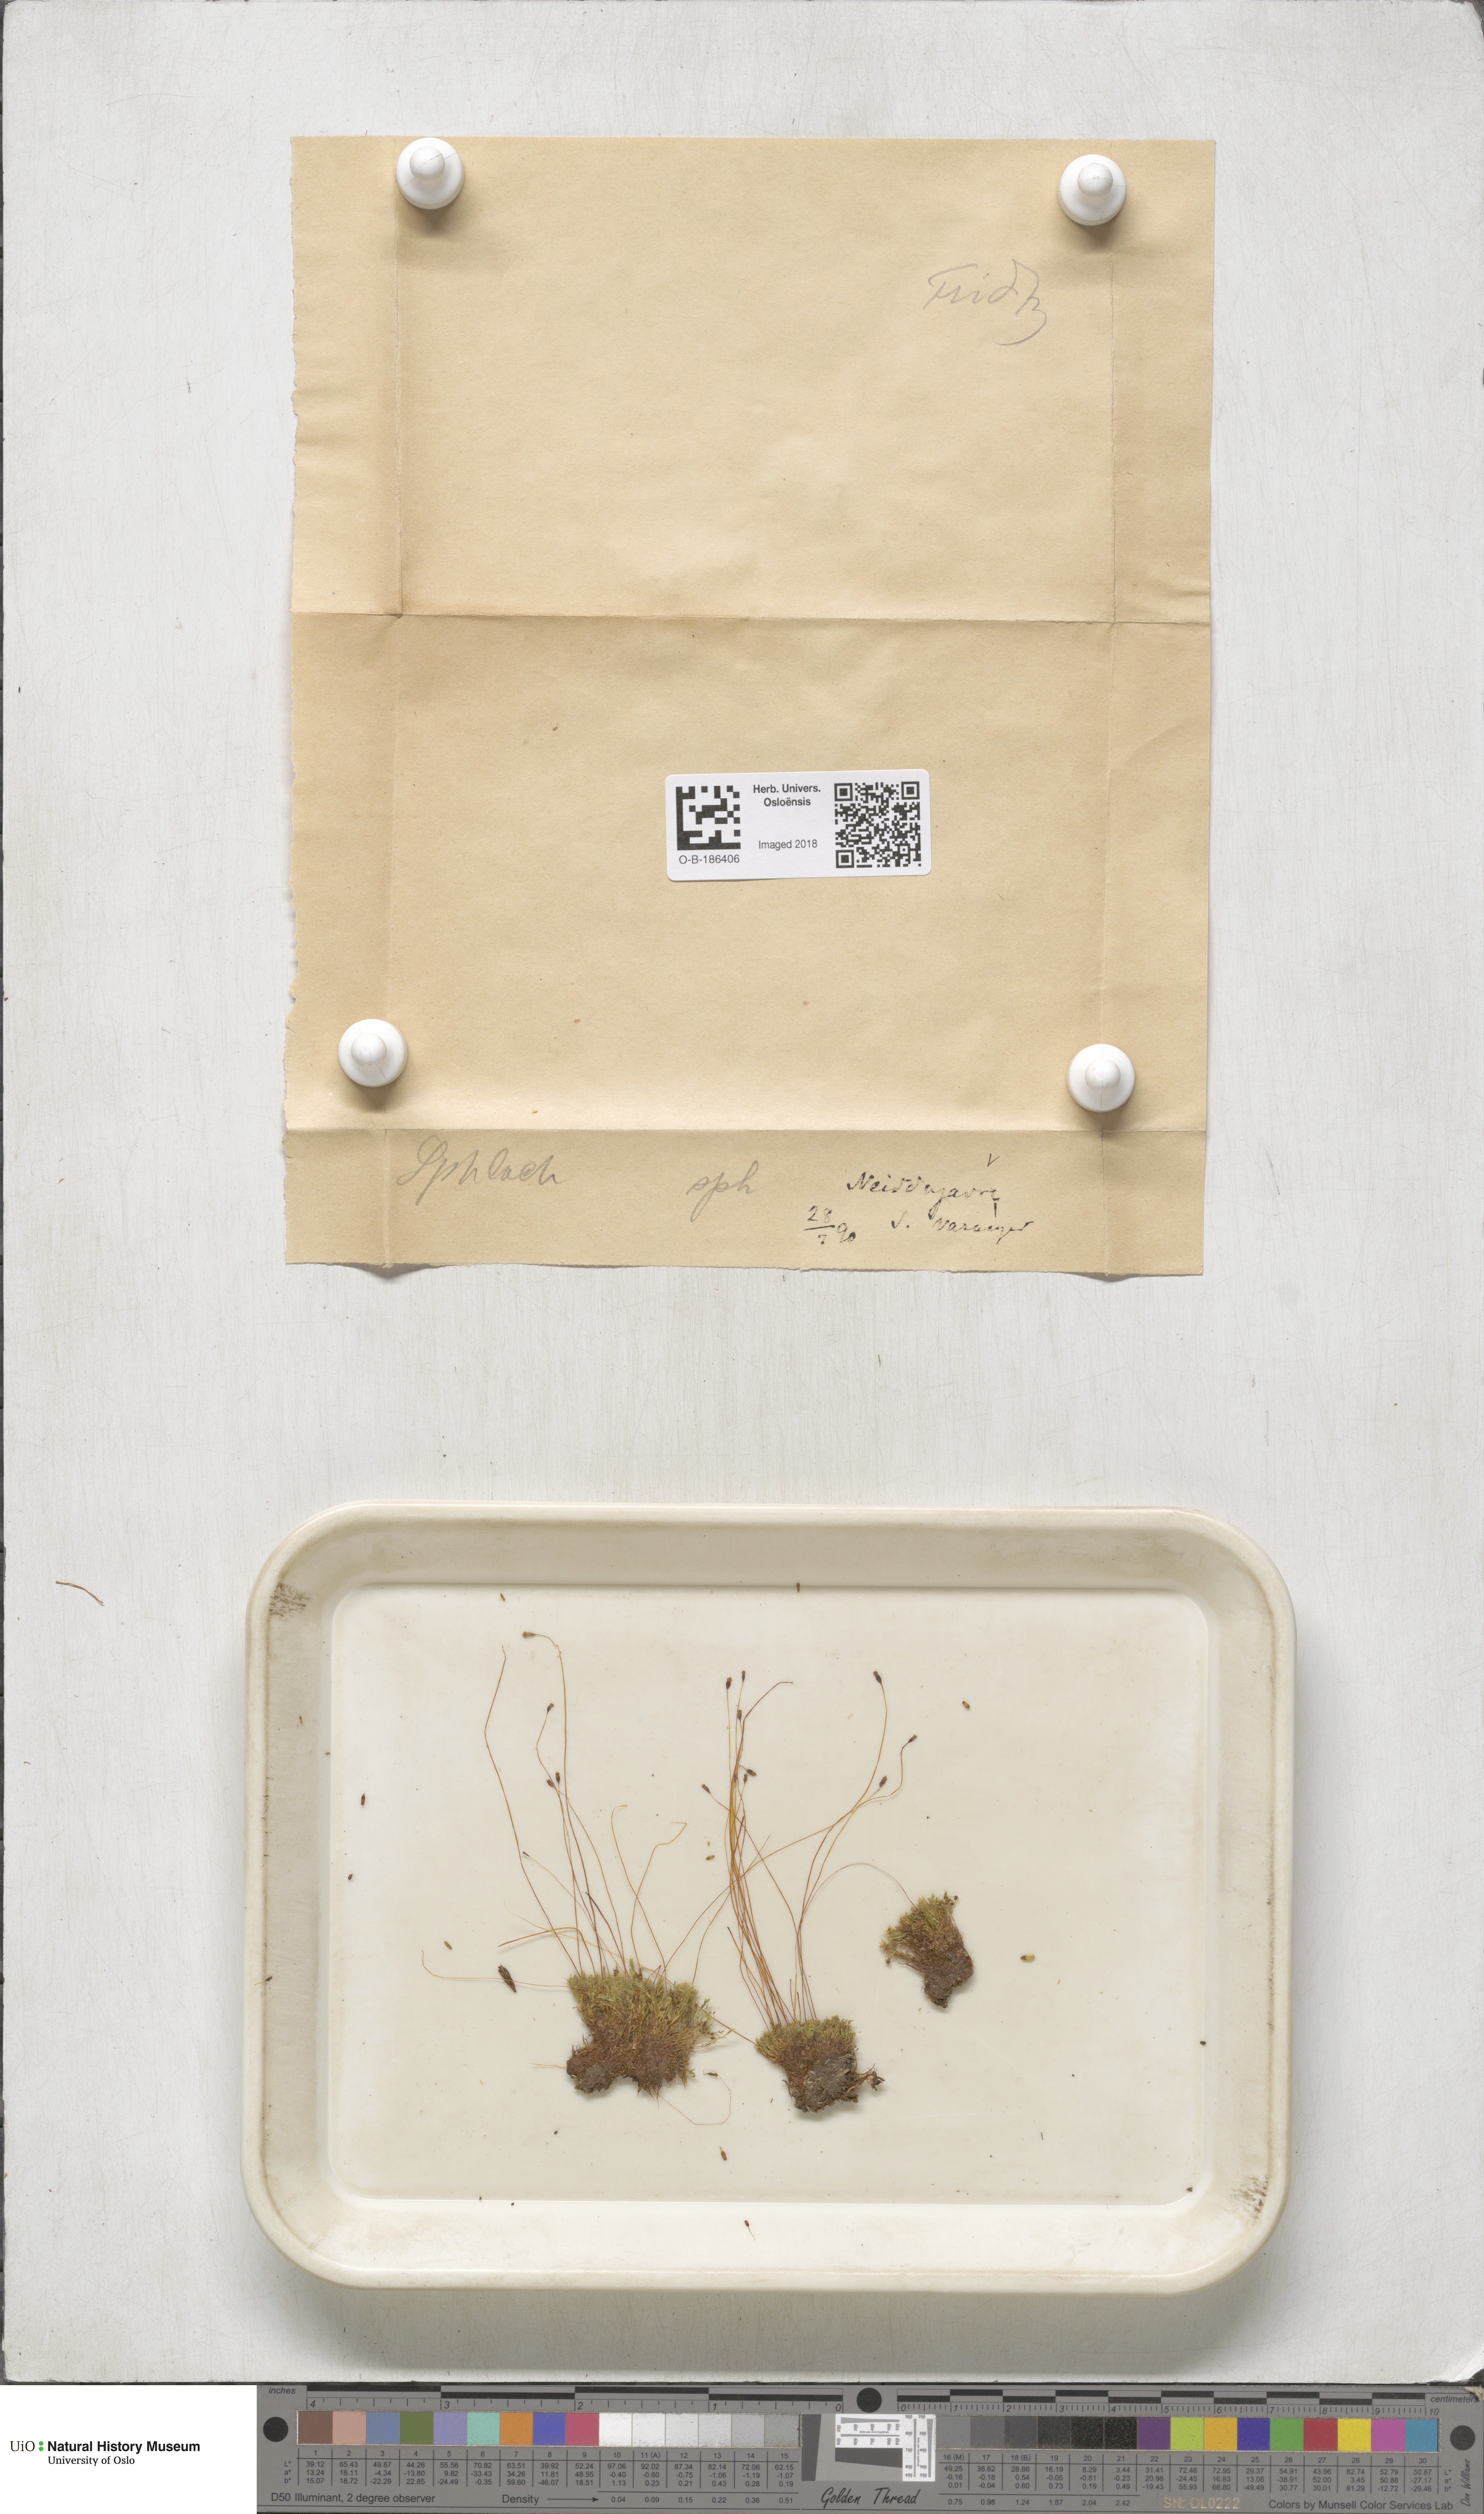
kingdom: Plantae
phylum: Bryophyta
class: Bryopsida
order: Splachnales
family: Splachnaceae
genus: Splachnum
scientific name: Splachnum sphaericum
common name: Round-fruited dung moss
